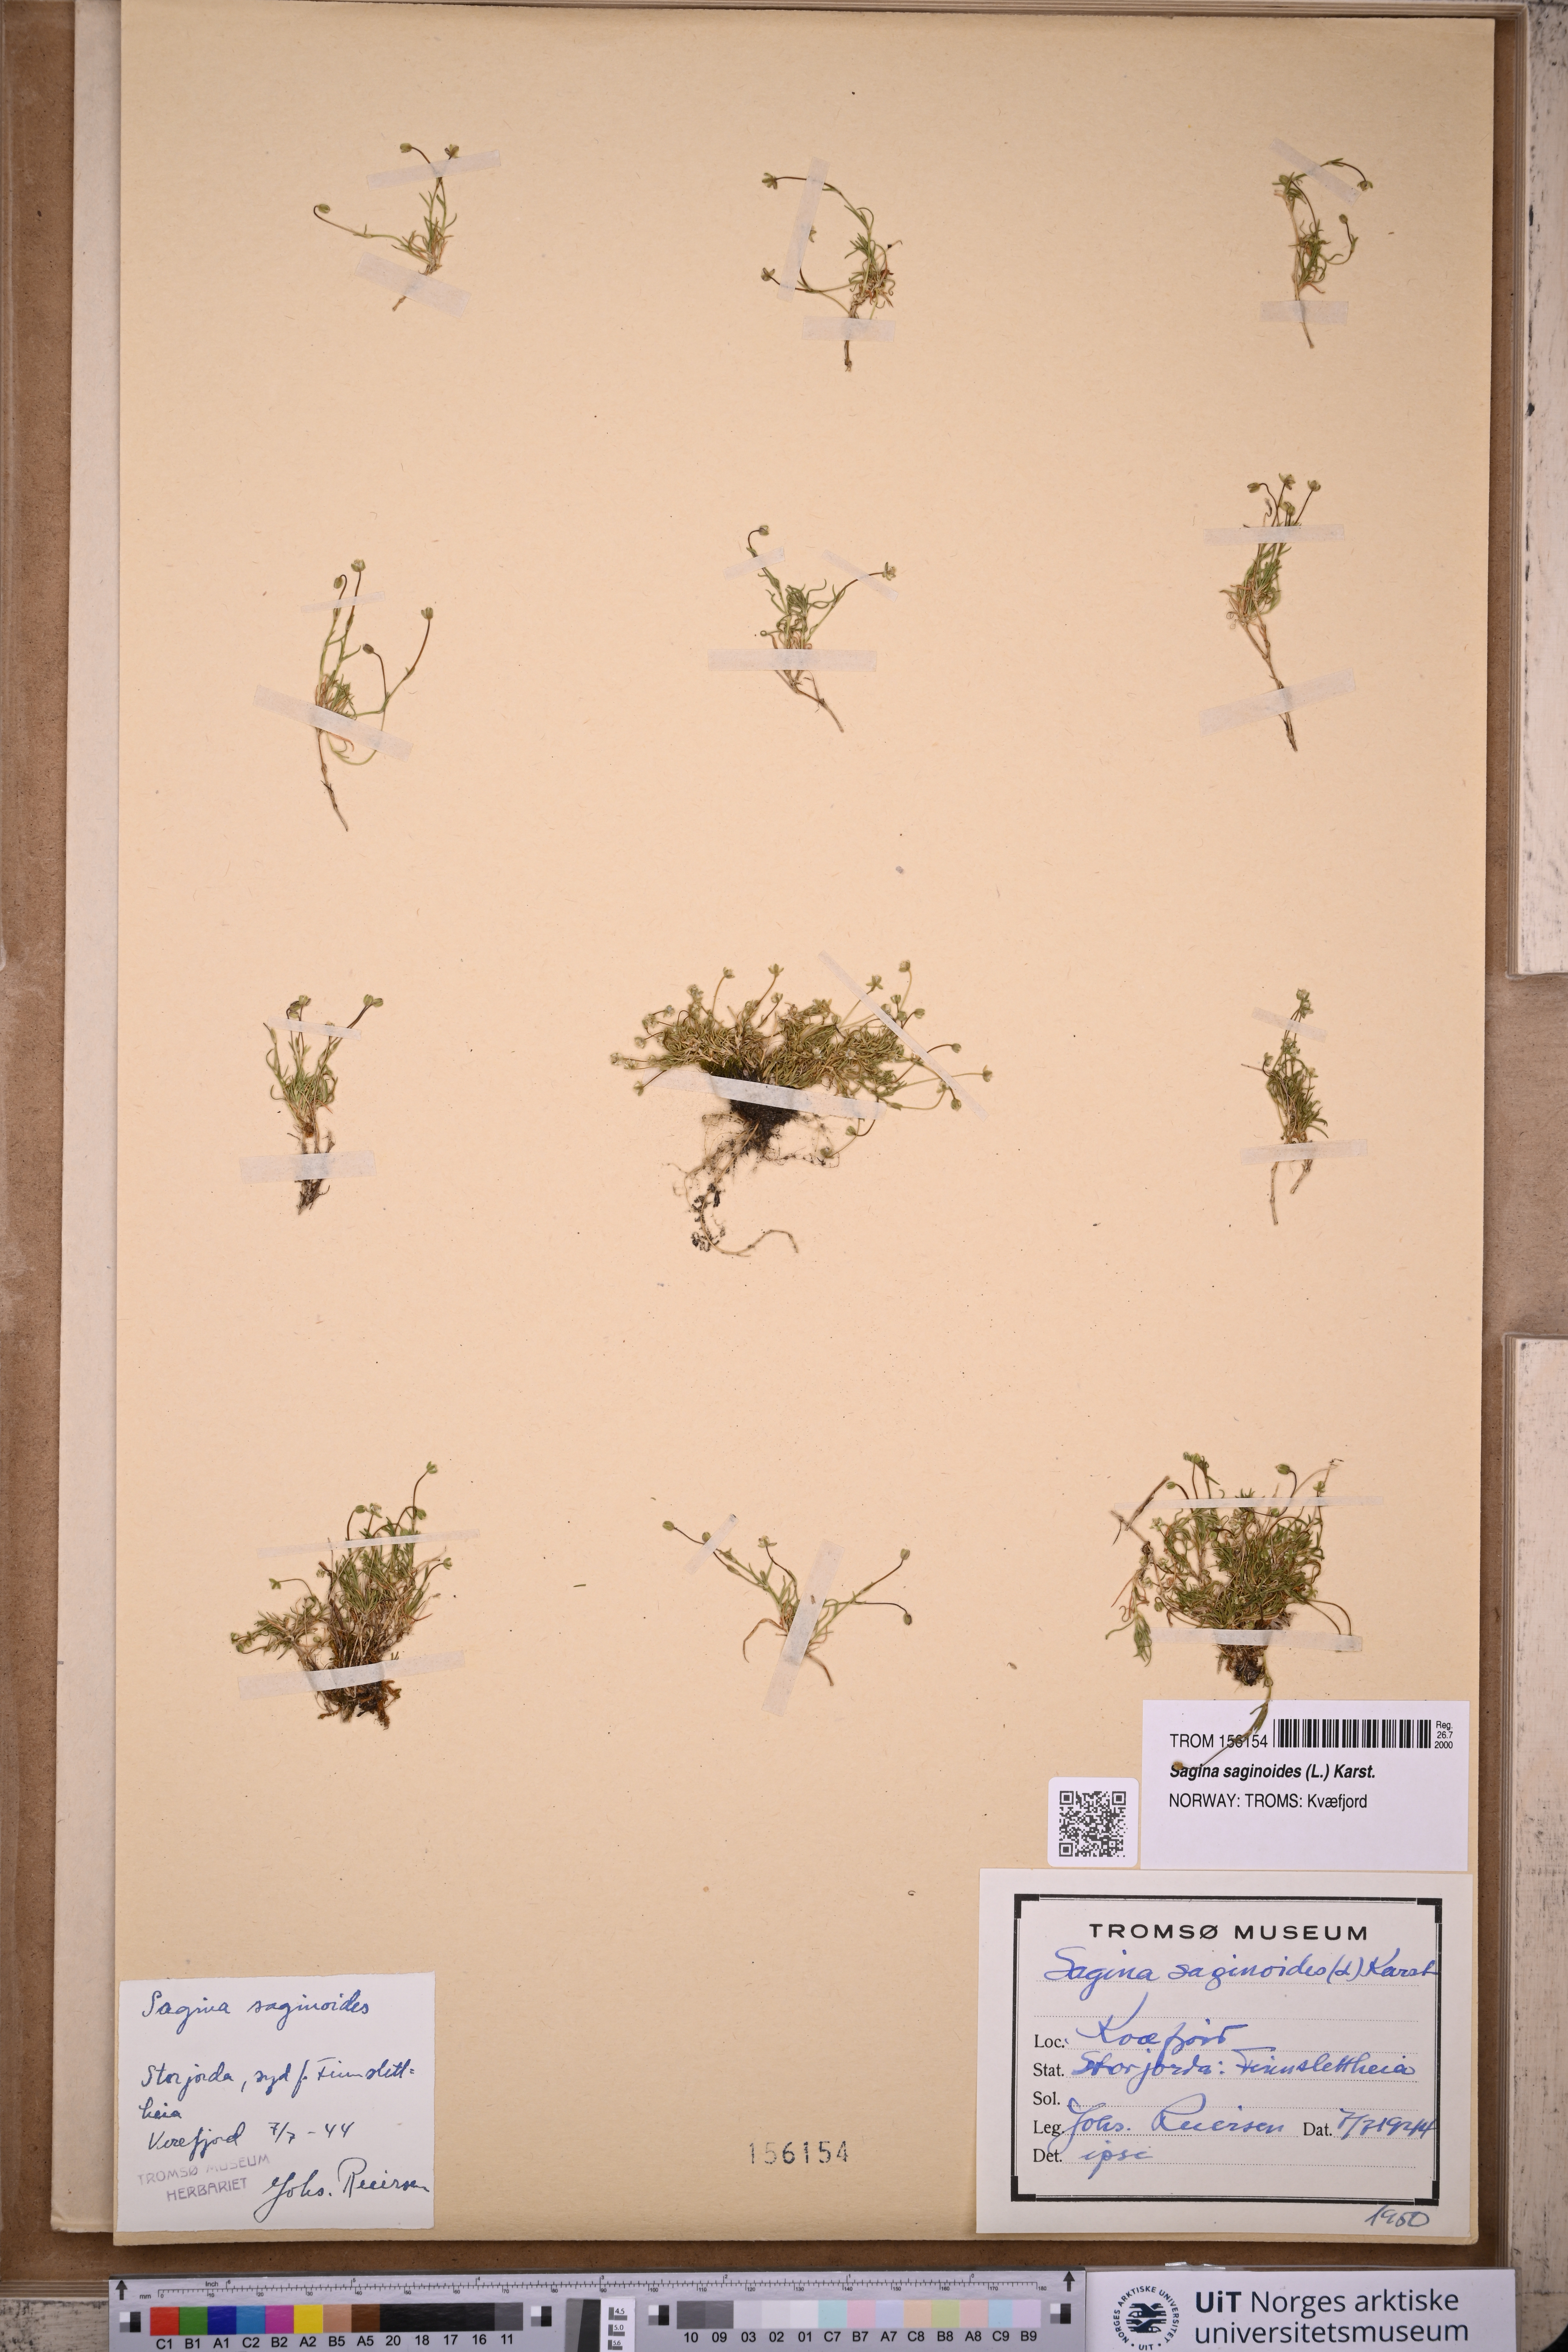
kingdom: Plantae
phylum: Tracheophyta
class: Magnoliopsida
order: Caryophyllales
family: Caryophyllaceae
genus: Sagina
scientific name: Sagina saginoides
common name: Alpine pearlwort
